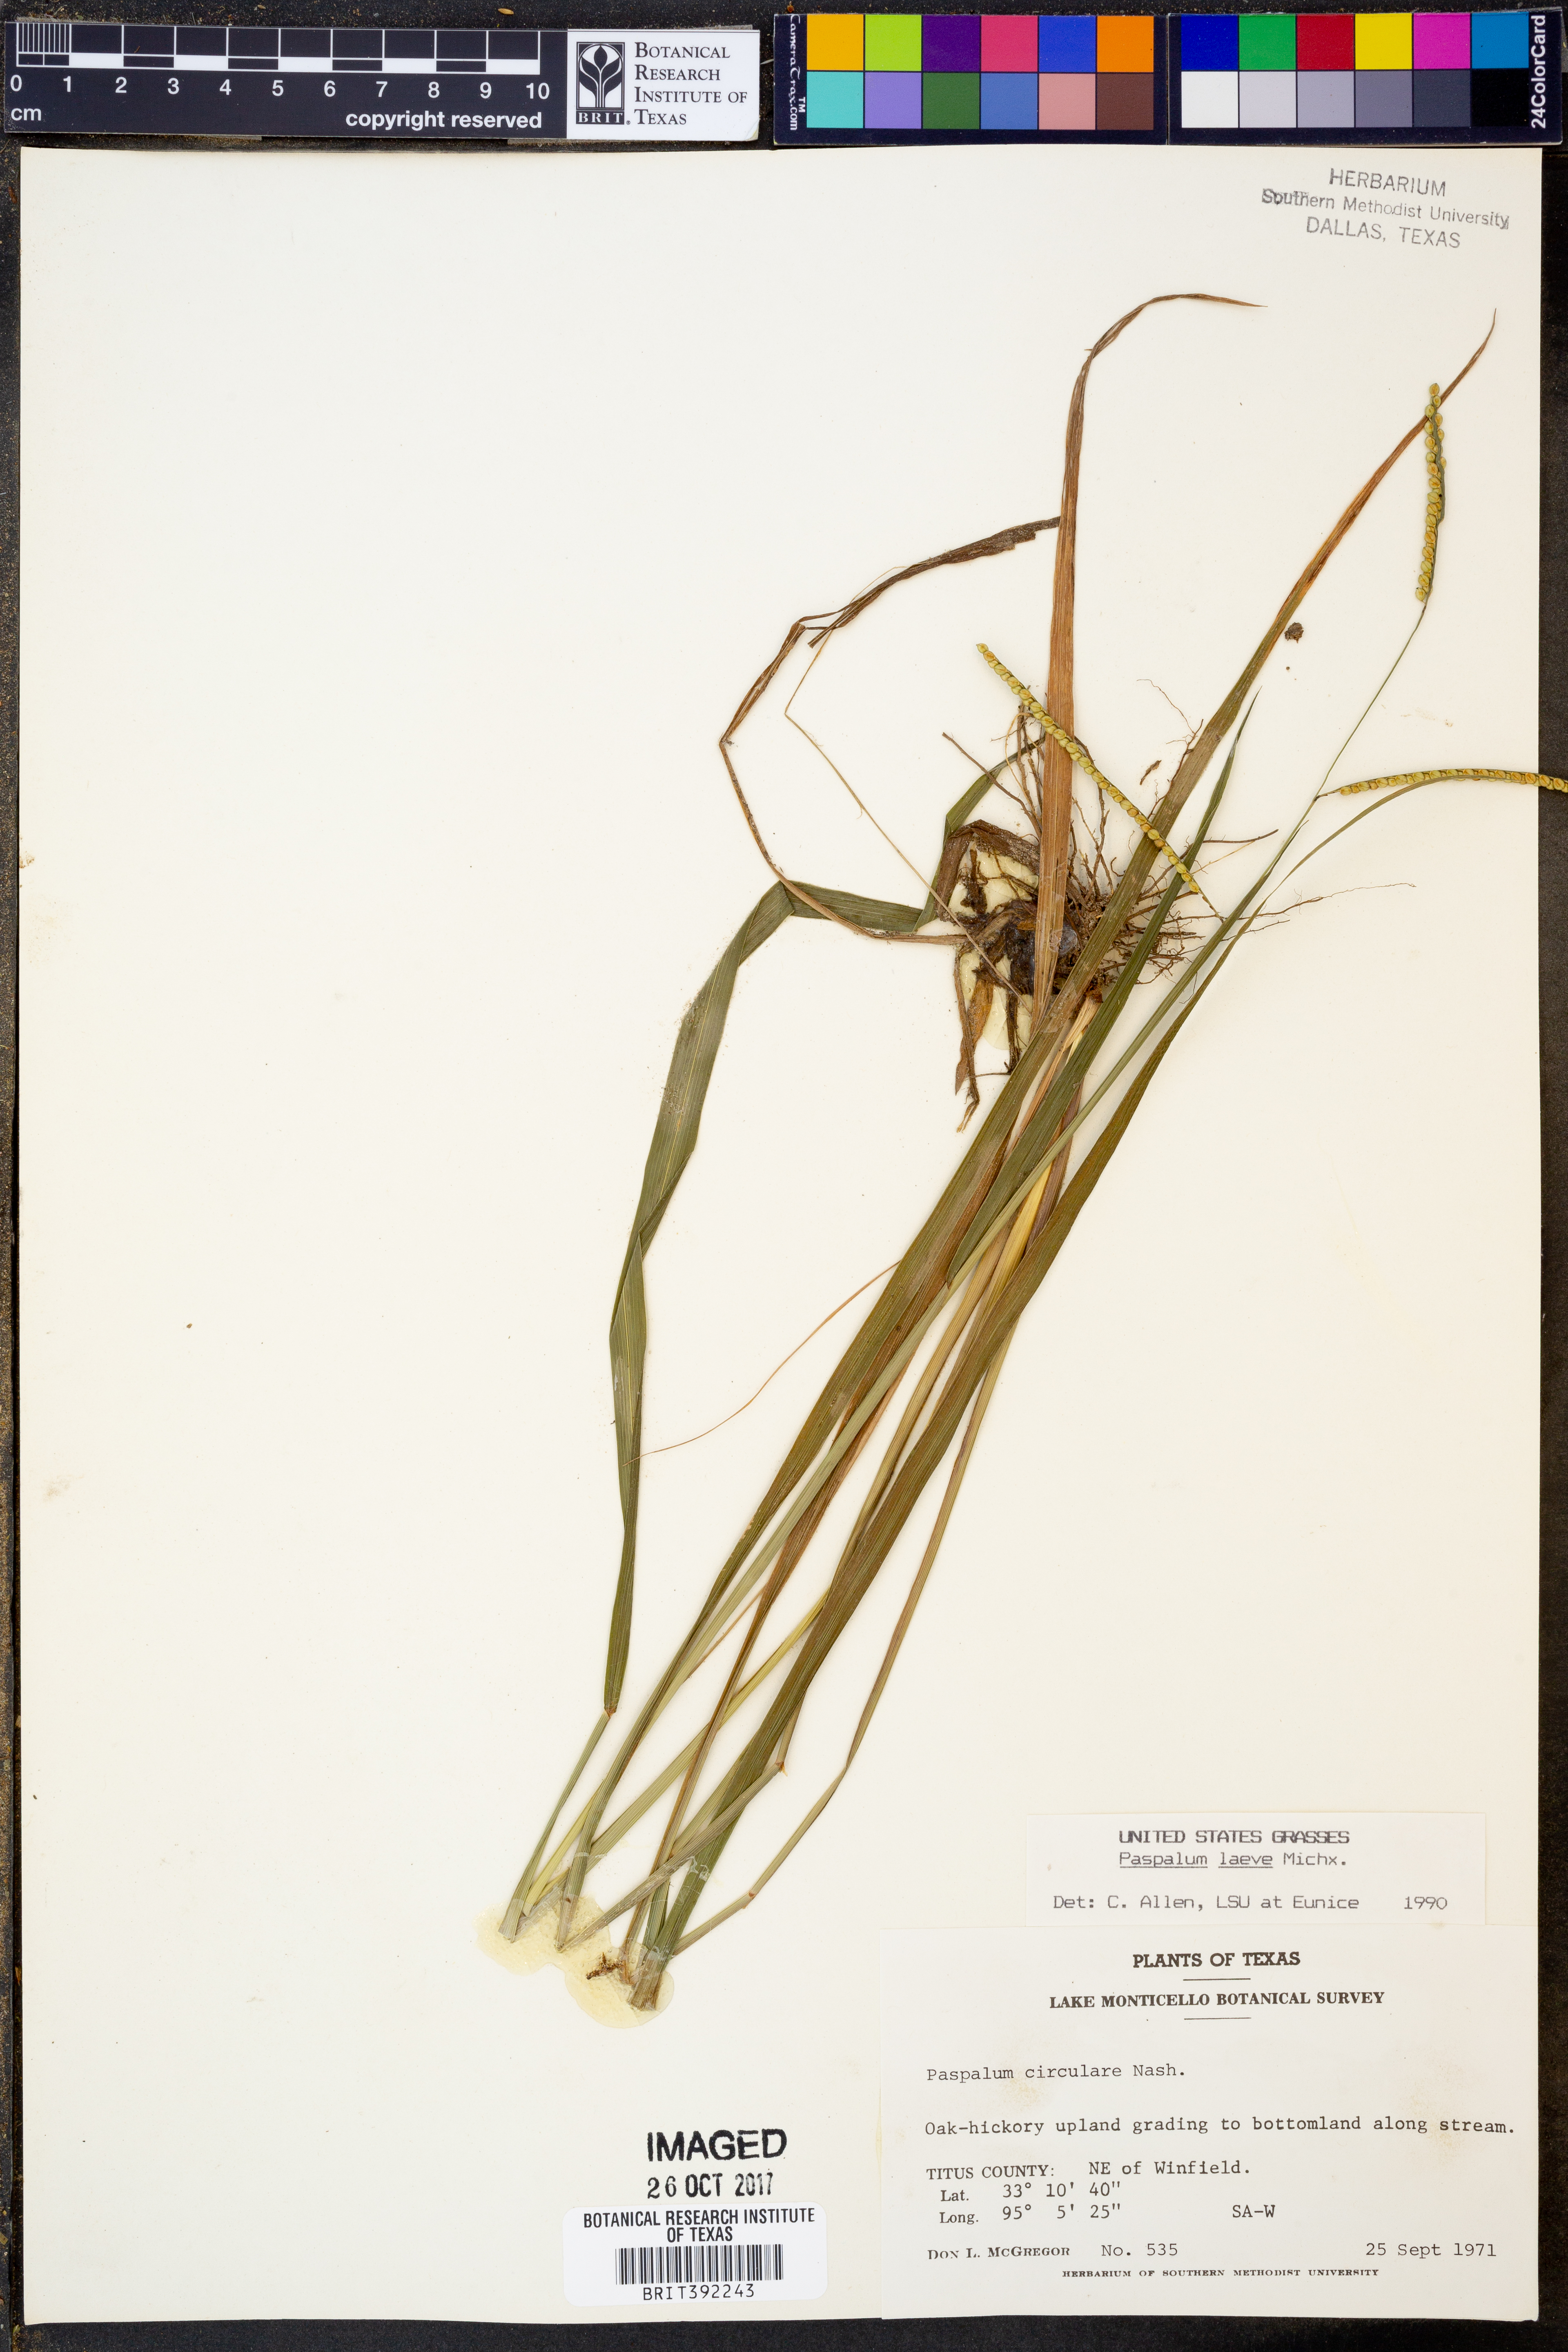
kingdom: Plantae
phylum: Tracheophyta
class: Liliopsida
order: Poales
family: Poaceae
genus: Paspalum
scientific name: Paspalum laeve
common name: Field paspalum
